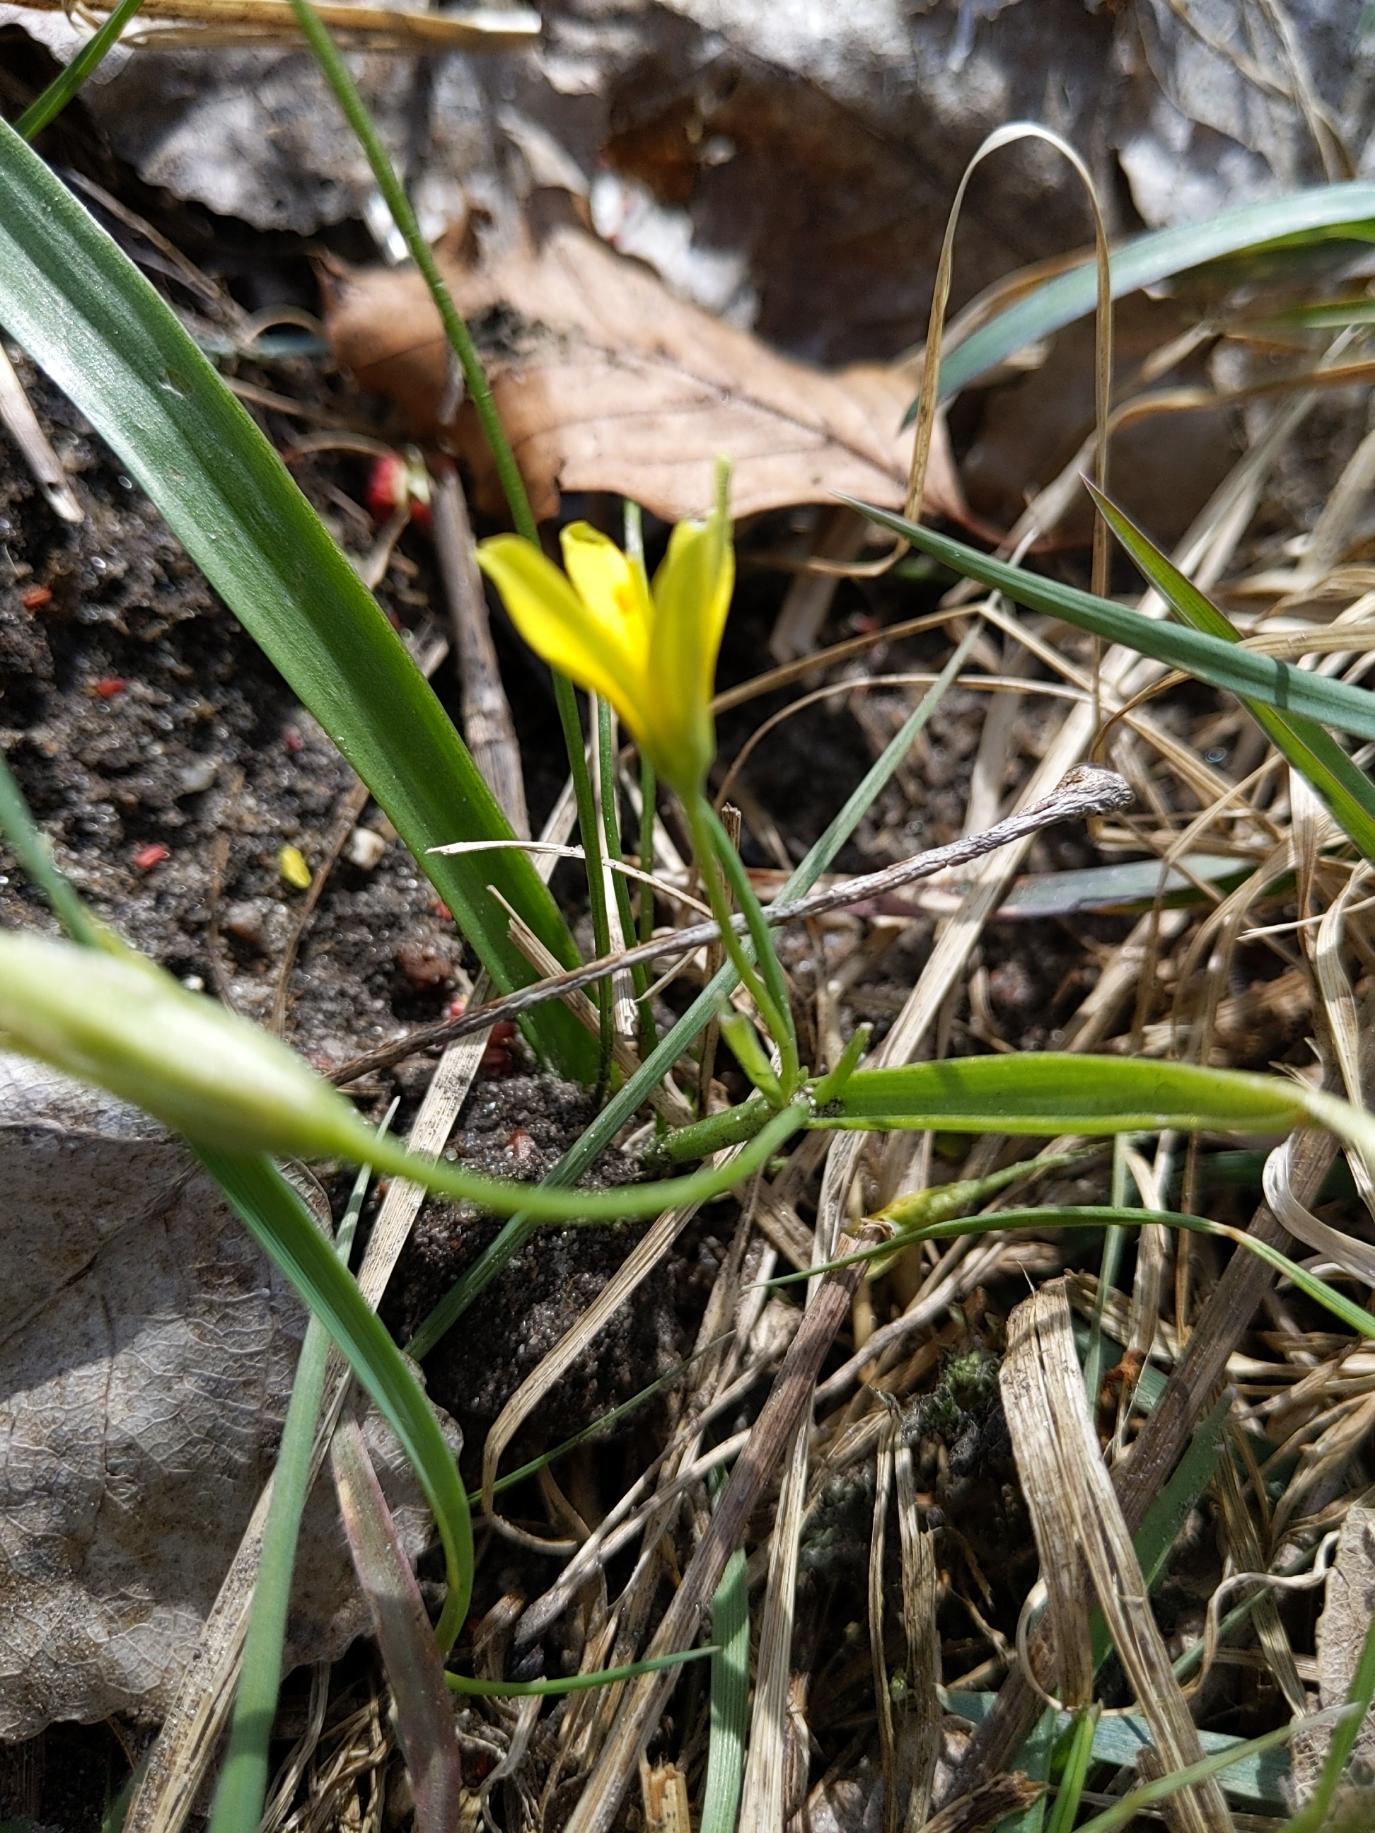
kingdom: Plantae
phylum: Tracheophyta
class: Liliopsida
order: Liliales
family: Liliaceae
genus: Gagea
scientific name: Gagea lutea
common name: Almindelig guldstjerne
